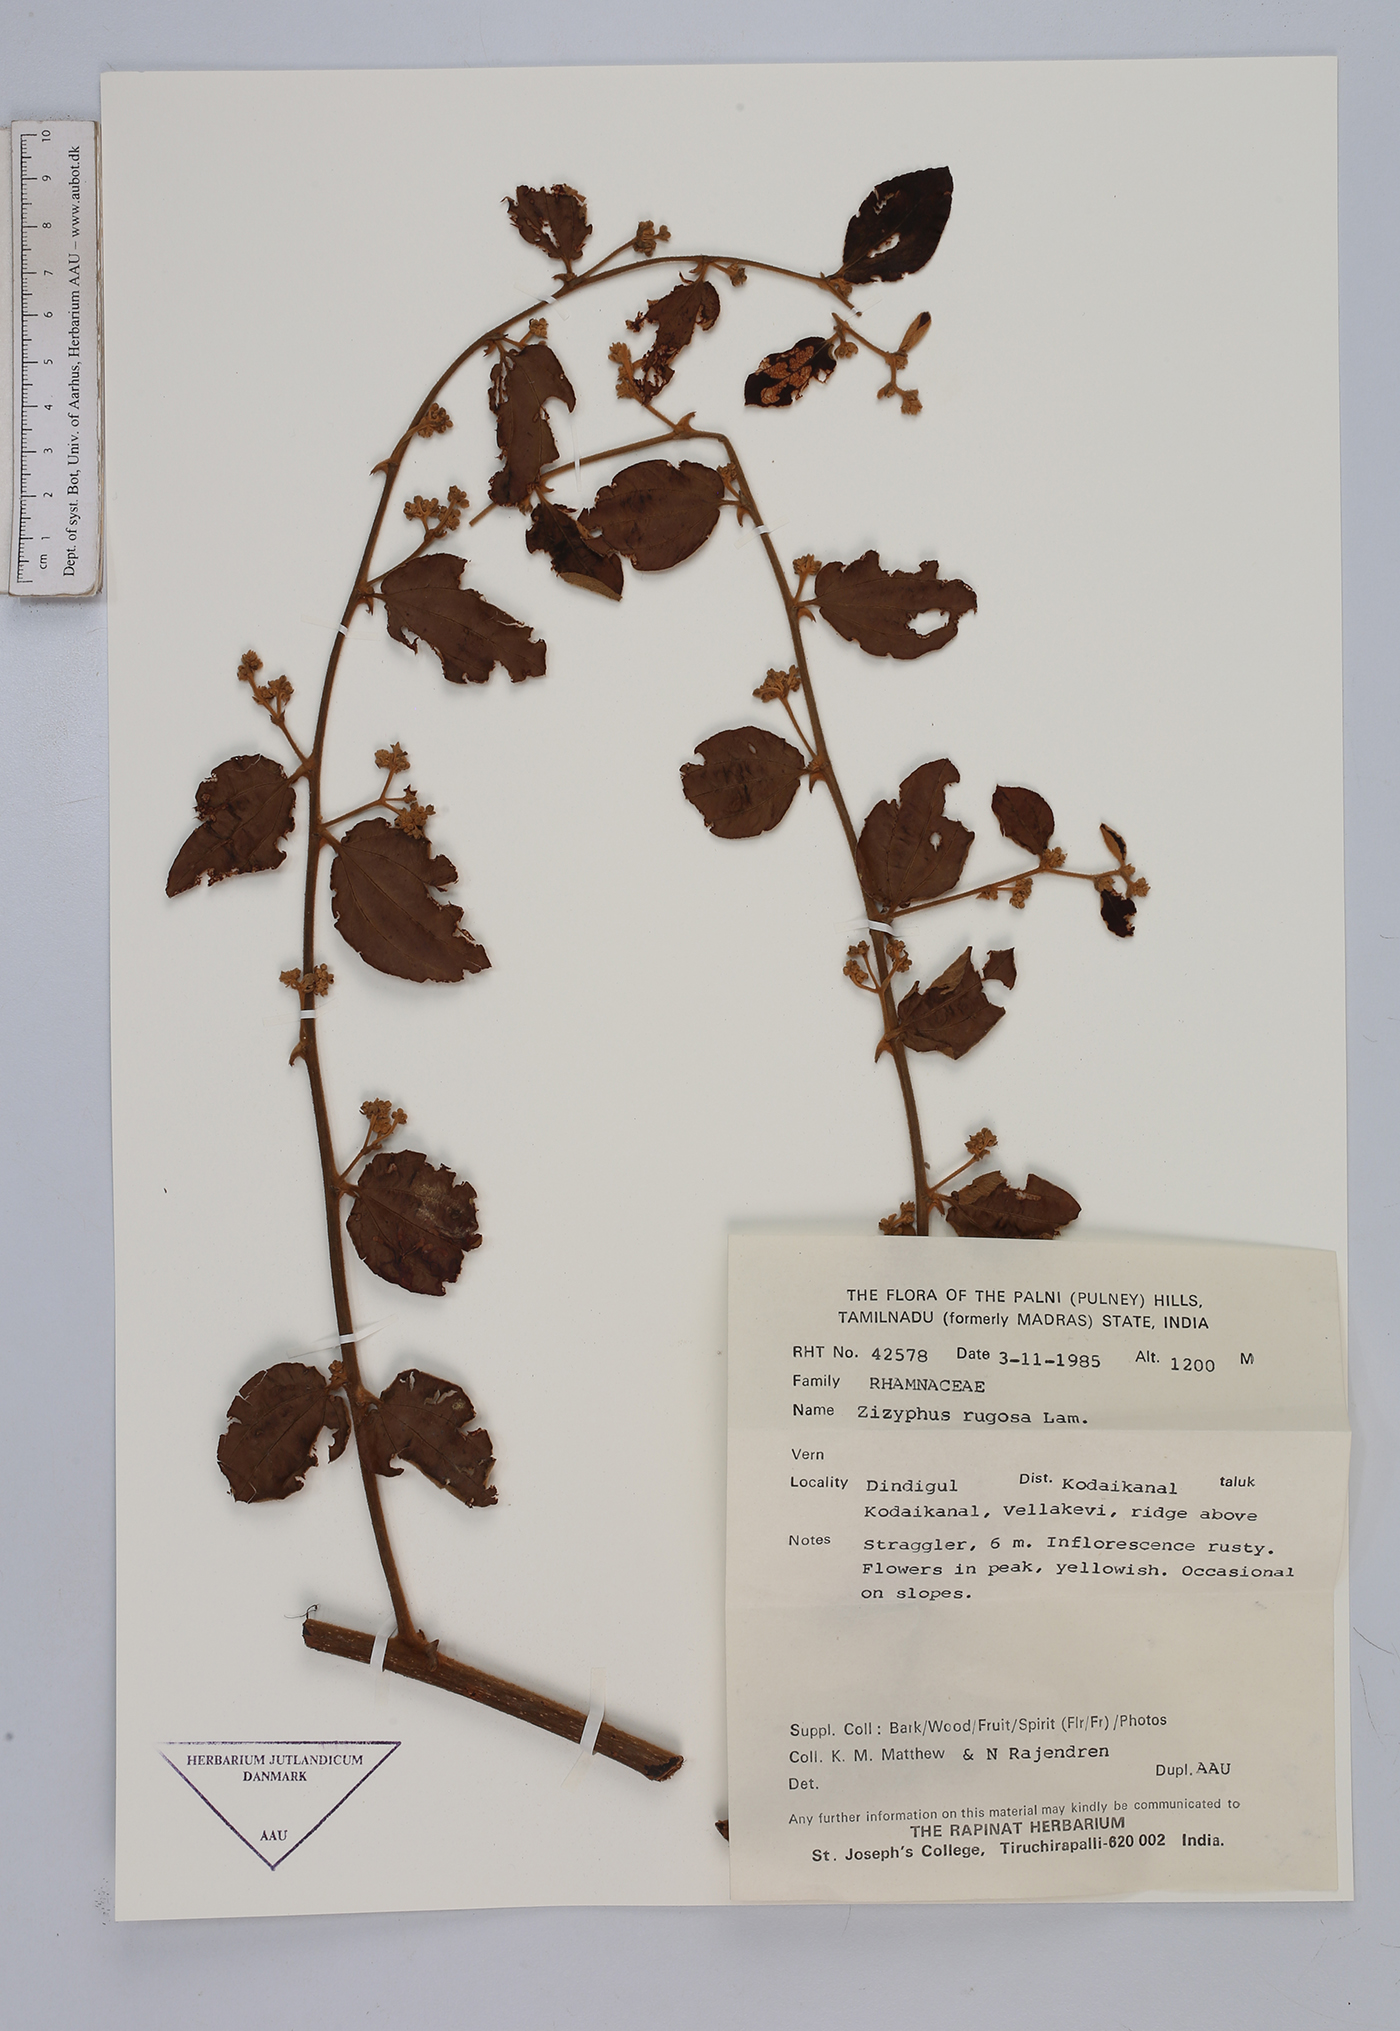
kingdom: Plantae
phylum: Tracheophyta
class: Magnoliopsida
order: Rosales
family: Rhamnaceae
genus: Ziziphus
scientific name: Ziziphus rugosa
